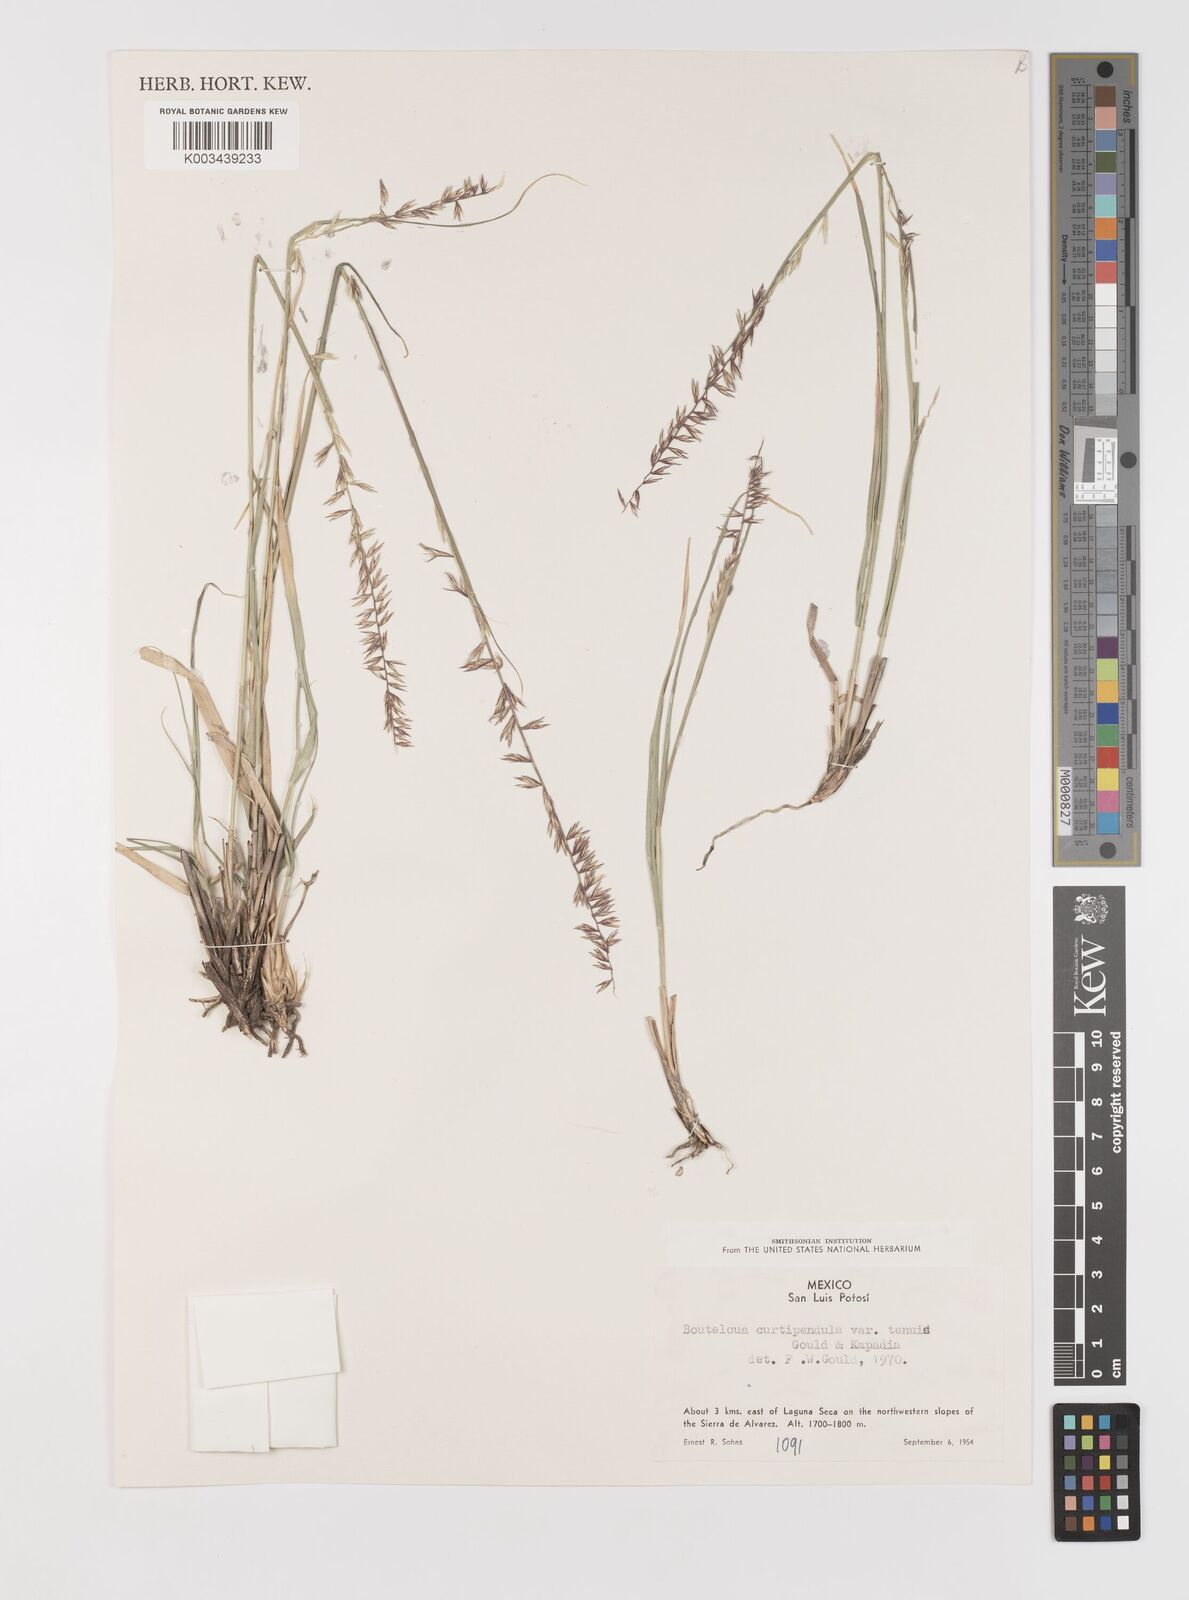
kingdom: Plantae
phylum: Tracheophyta
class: Liliopsida
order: Poales
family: Poaceae
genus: Bouteloua
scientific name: Bouteloua curtipendula
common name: Side-oats grama
